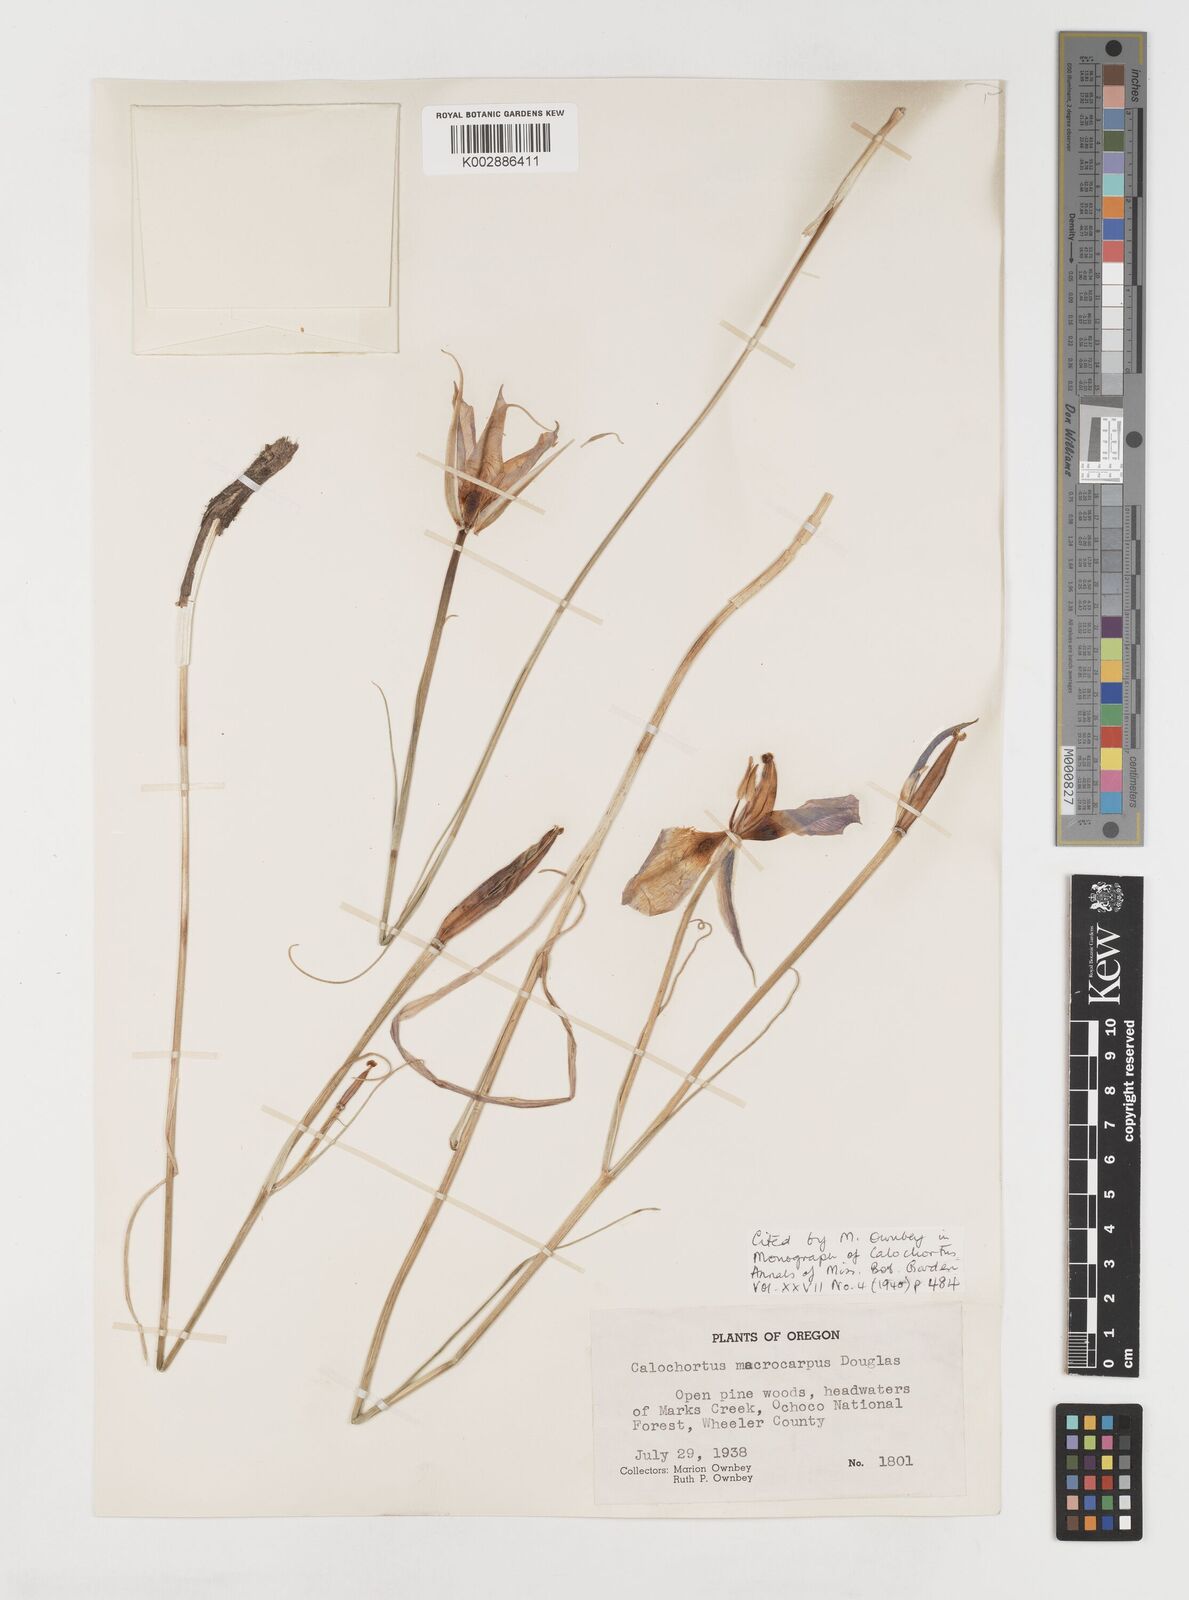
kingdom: Plantae
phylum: Tracheophyta
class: Liliopsida
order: Liliales
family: Liliaceae
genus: Calochortus
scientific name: Calochortus macrocarpus
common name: Green-band mariposa lily
